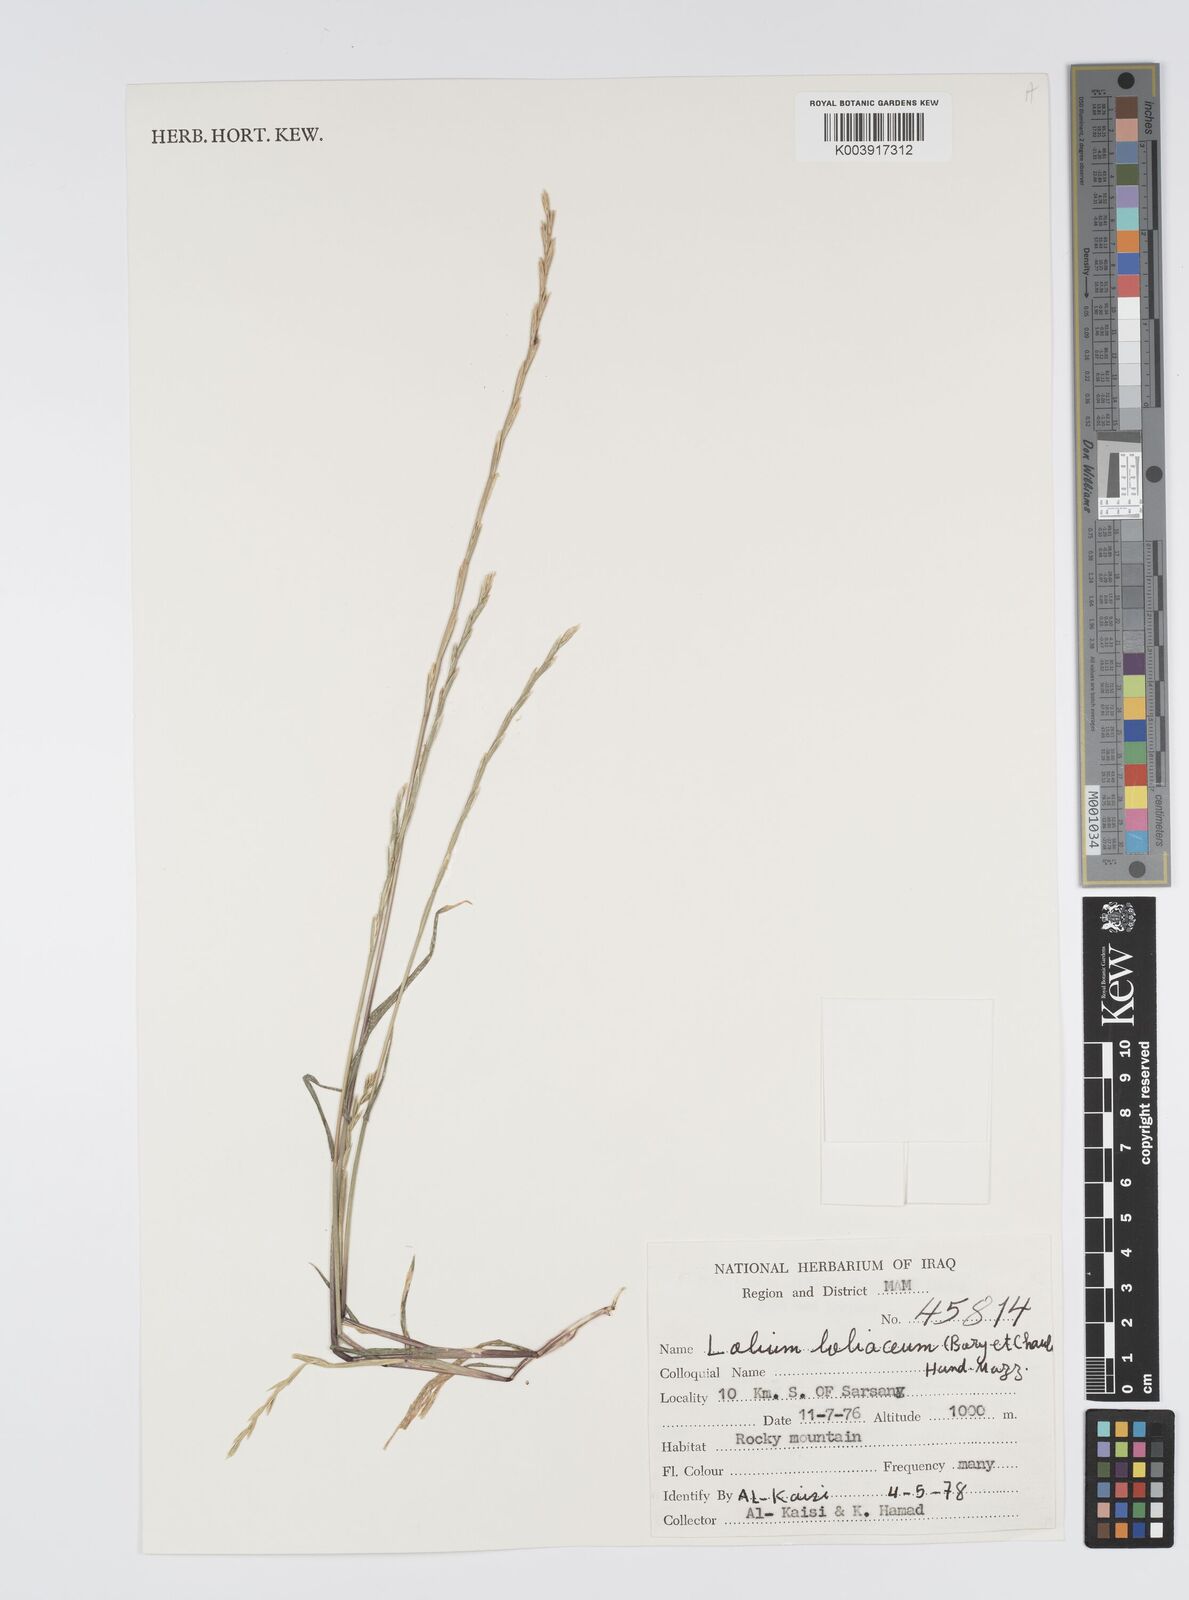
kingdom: Plantae
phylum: Tracheophyta
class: Liliopsida
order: Poales
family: Poaceae
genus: Lolium
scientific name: Lolium rigidum
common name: Wimmera ryegrass
